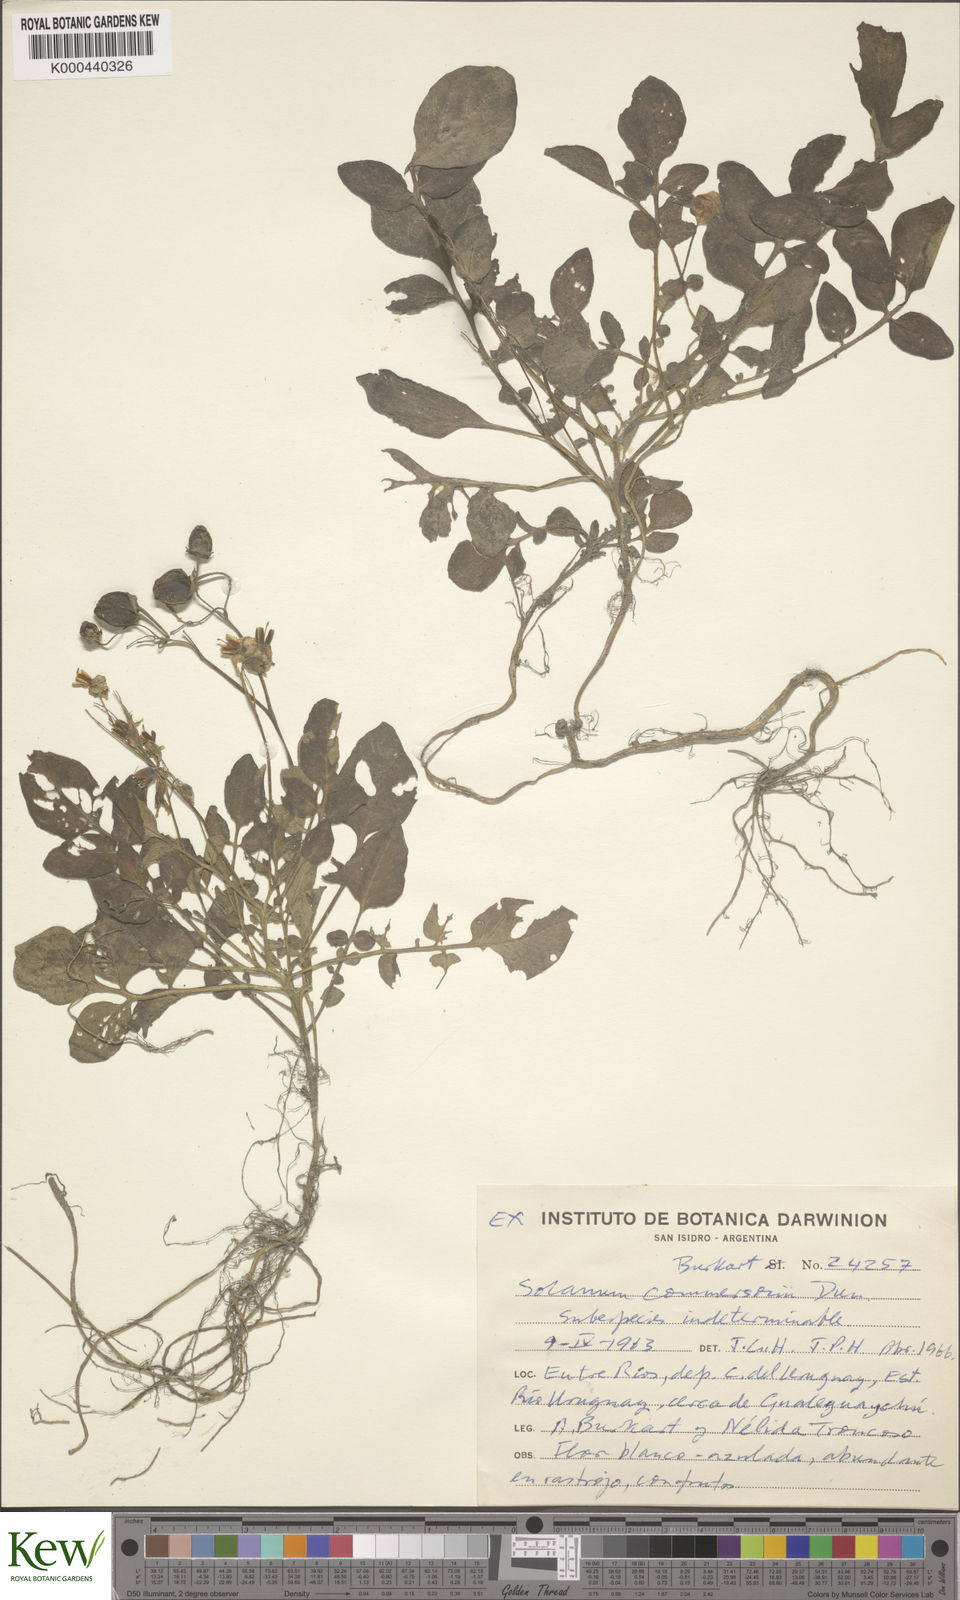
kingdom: Plantae
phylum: Tracheophyta
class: Magnoliopsida
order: Solanales
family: Solanaceae
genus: Solanum
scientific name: Solanum commersonii
